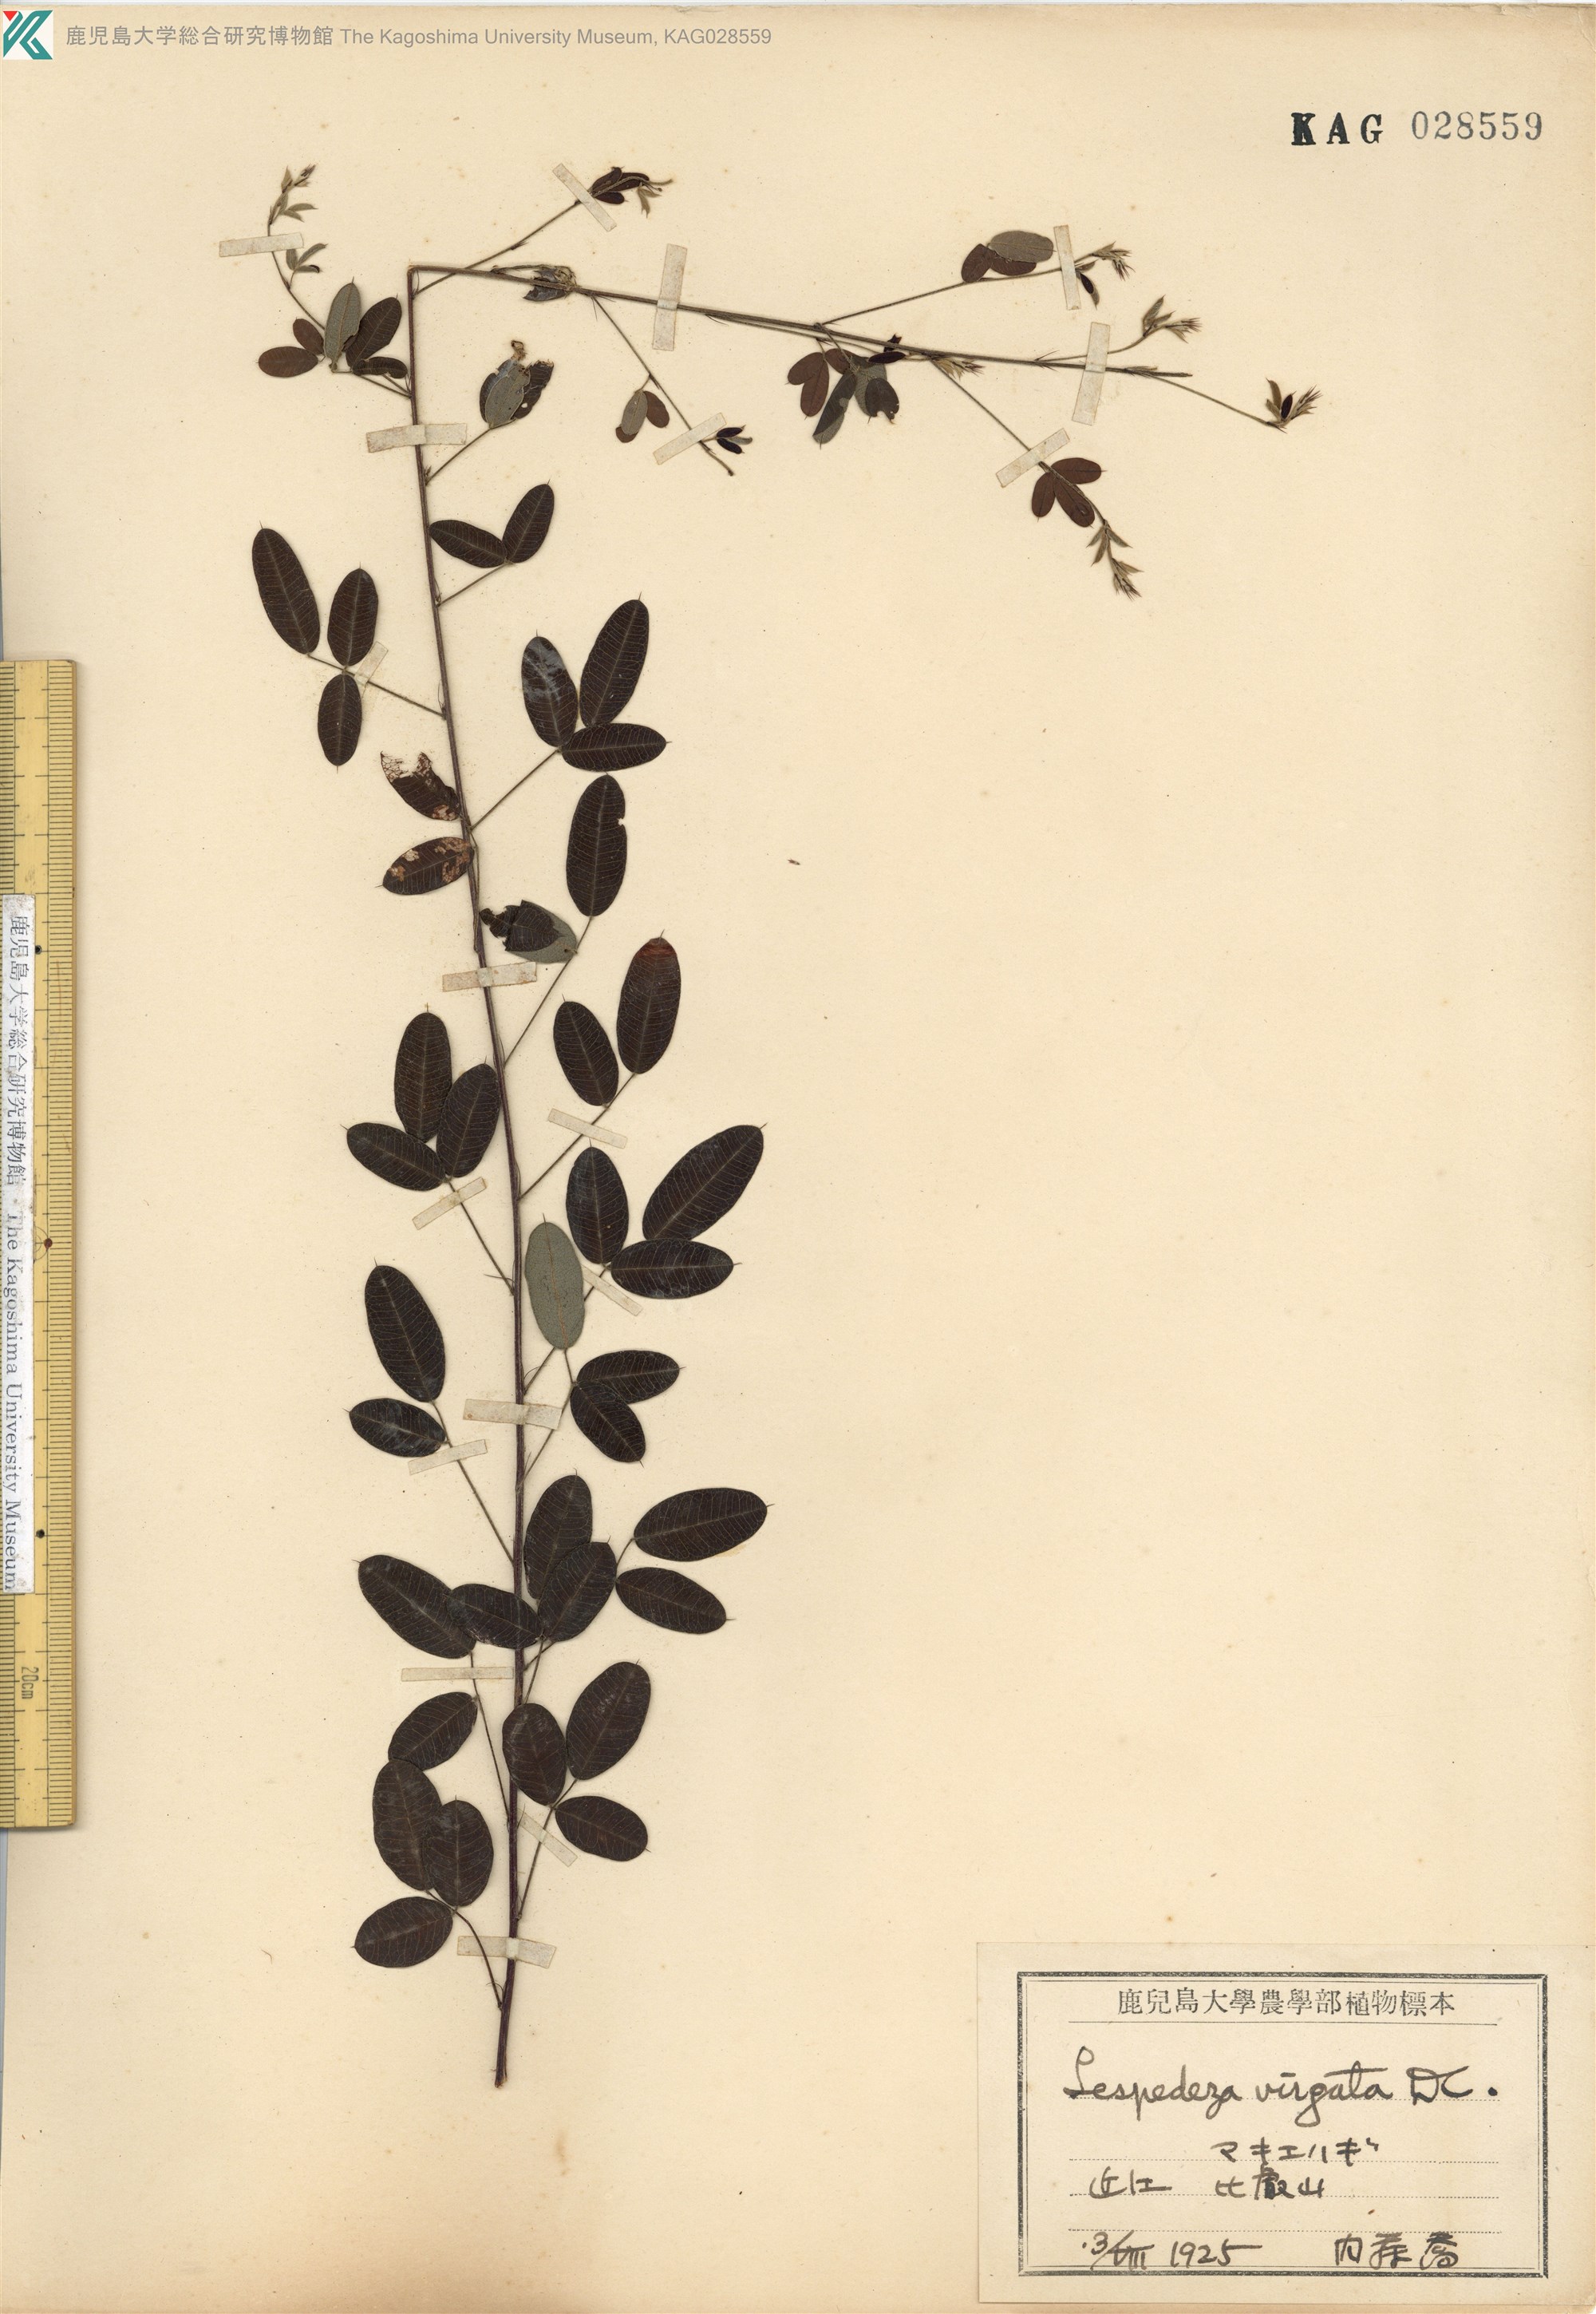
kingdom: Plantae
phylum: Tracheophyta
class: Magnoliopsida
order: Fabales
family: Fabaceae
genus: Lespedeza
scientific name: Lespedeza virgata
